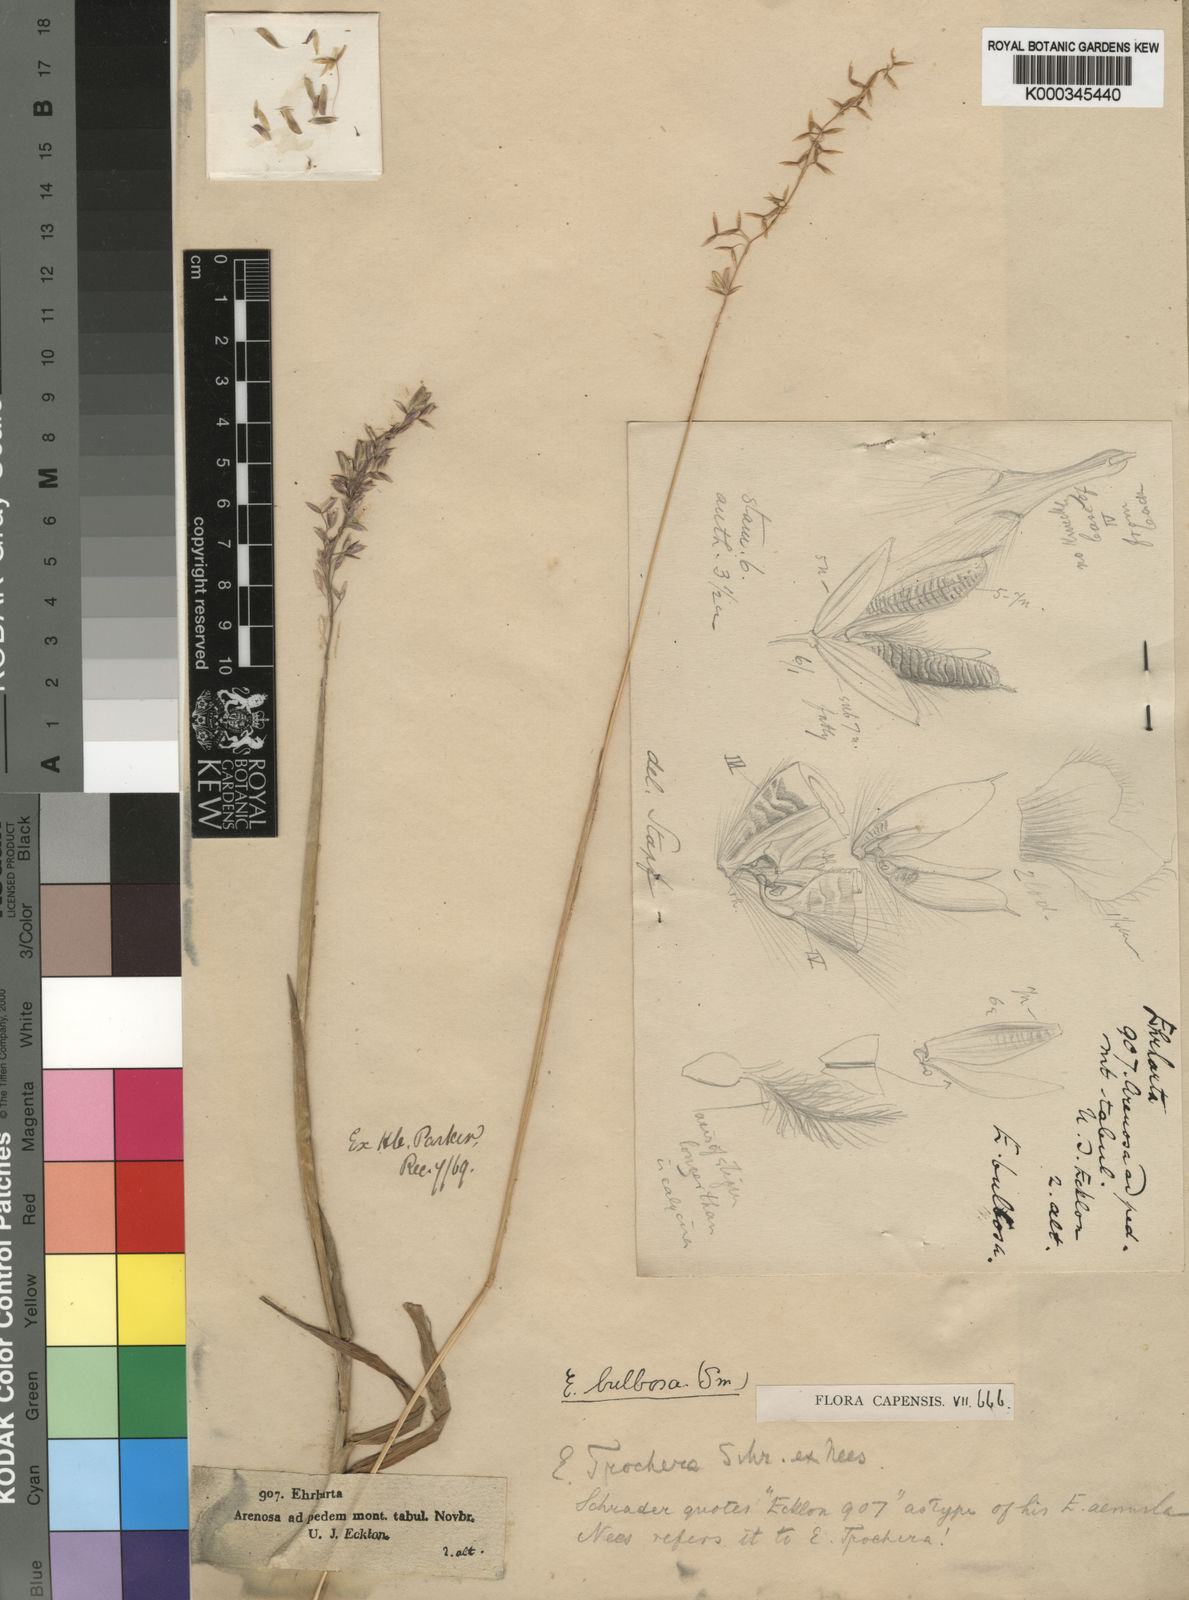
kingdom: Plantae
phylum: Tracheophyta
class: Liliopsida
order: Poales
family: Poaceae
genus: Ehrharta
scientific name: Ehrharta bulbosa
